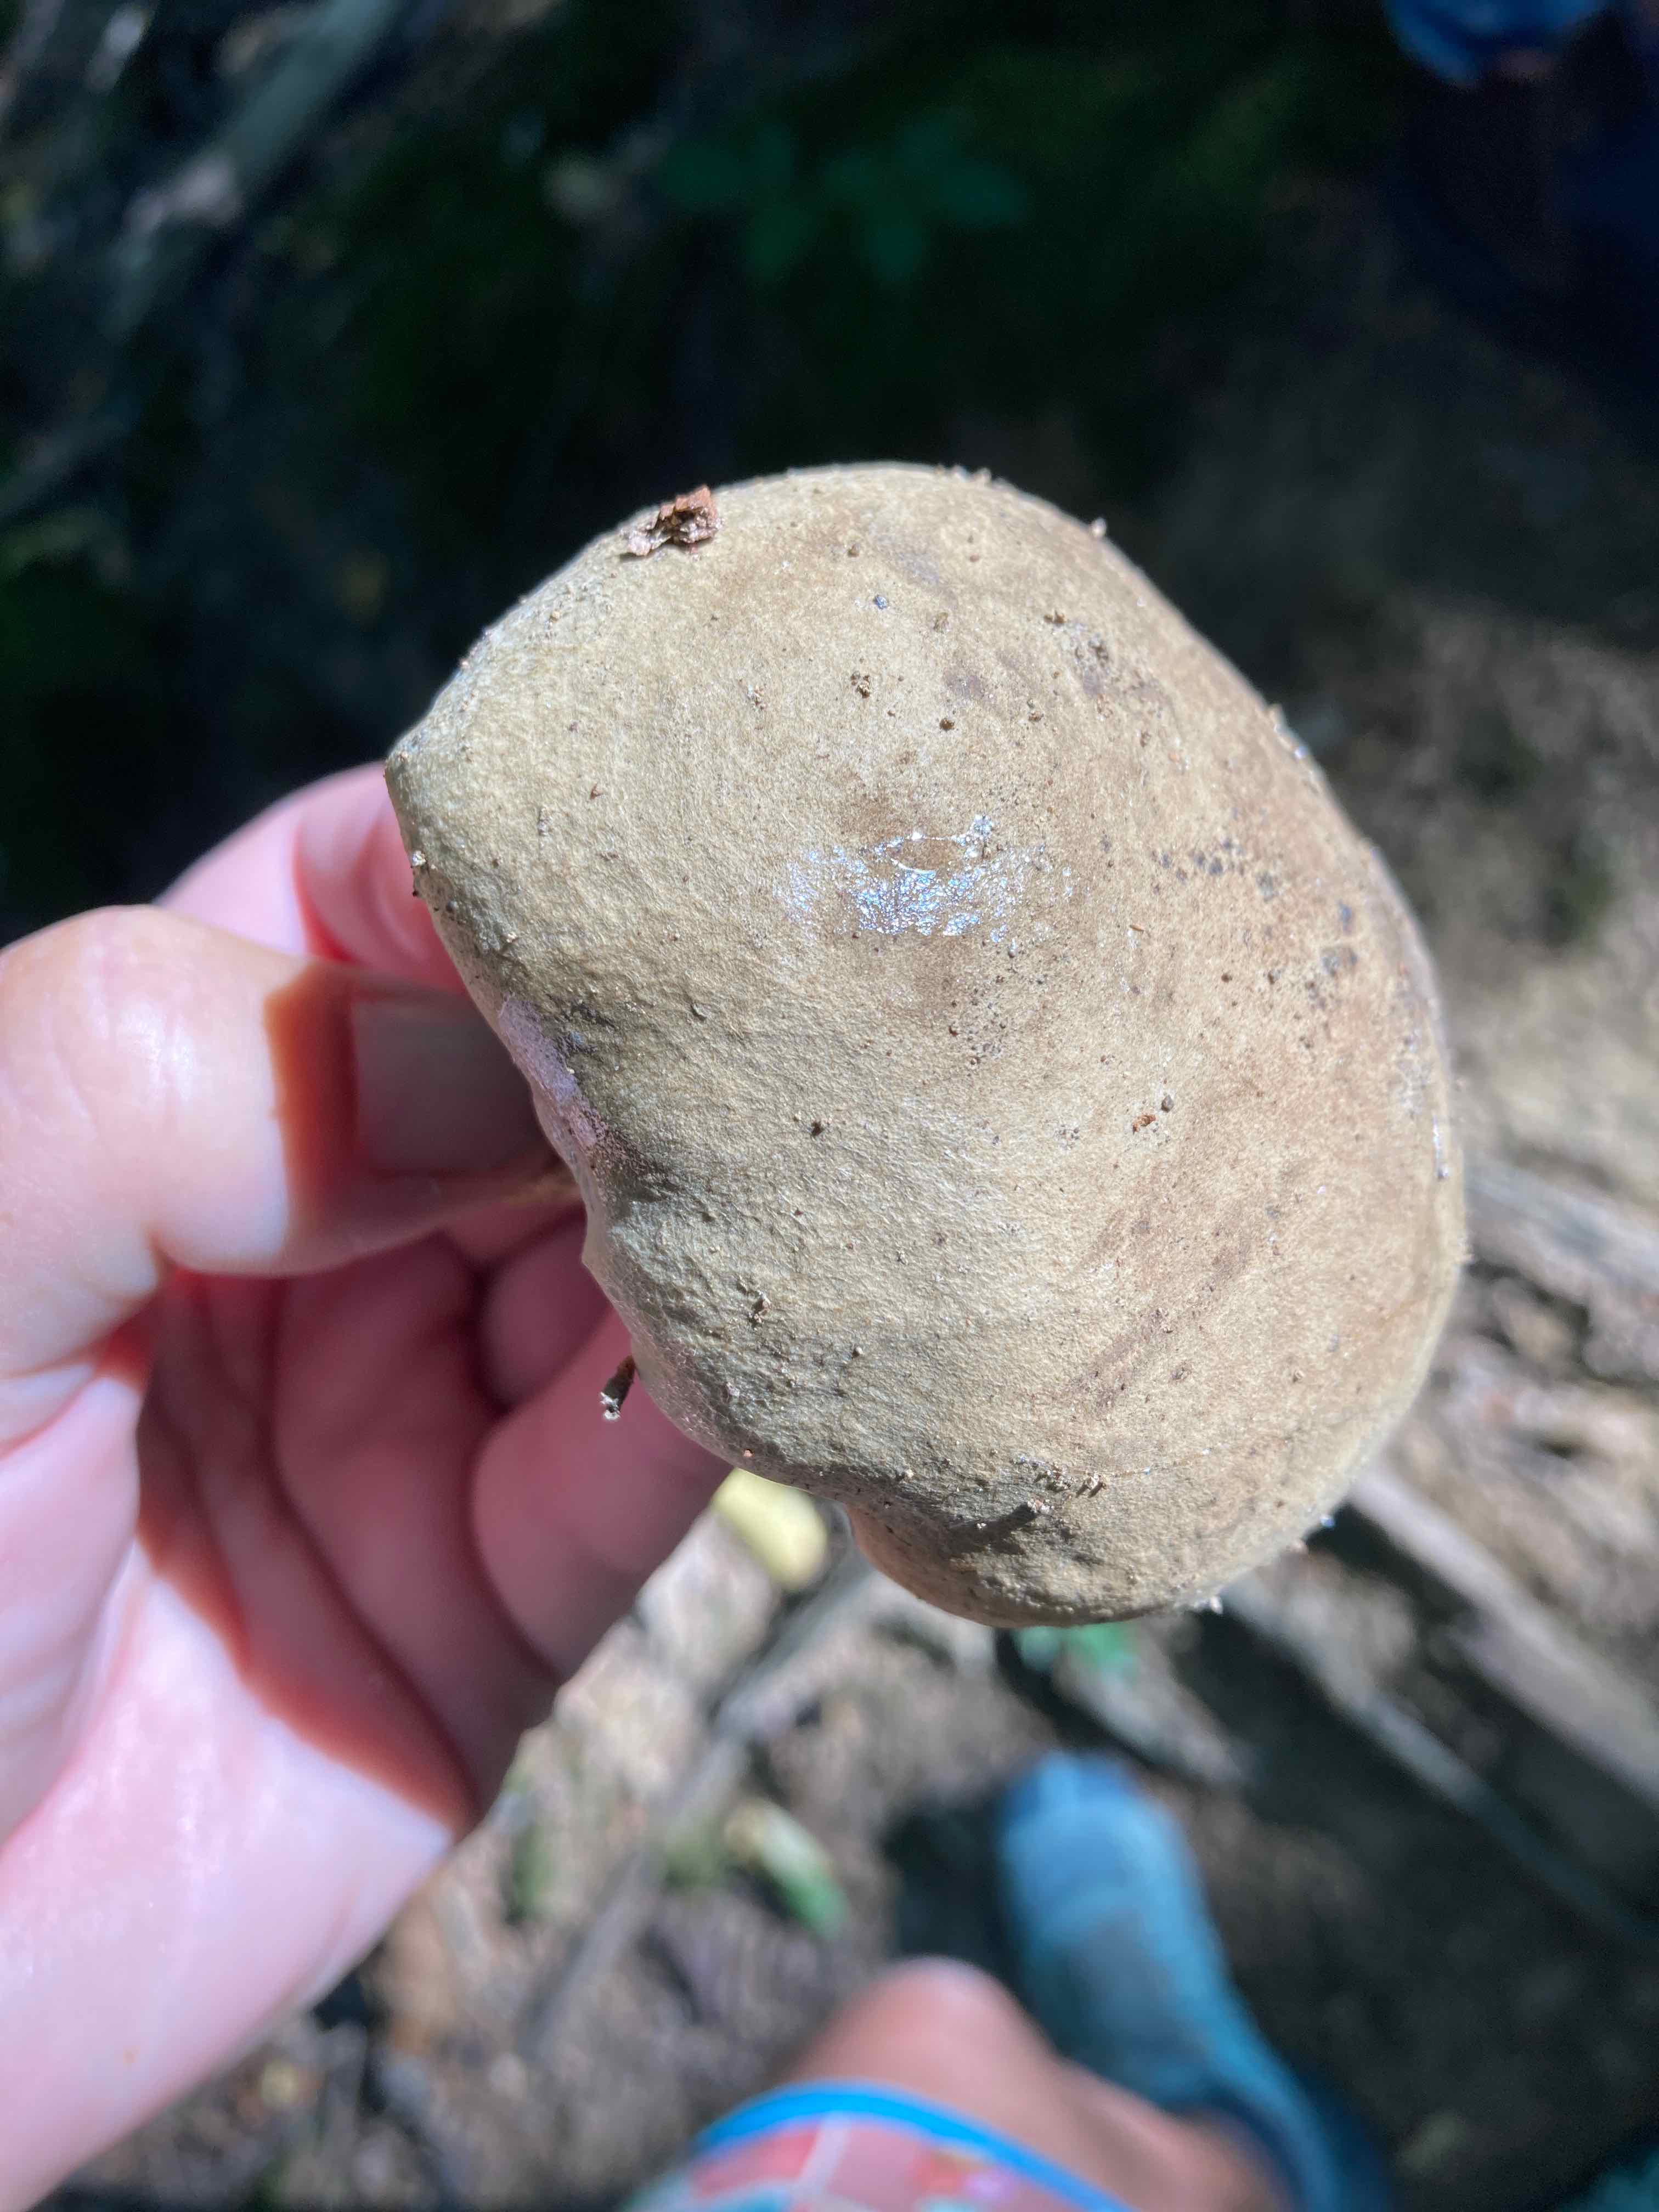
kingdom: Fungi
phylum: Basidiomycota
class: Agaricomycetes
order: Boletales
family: Boletaceae
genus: Caloboletus
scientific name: Caloboletus calopus
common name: skønfodet rørhat
